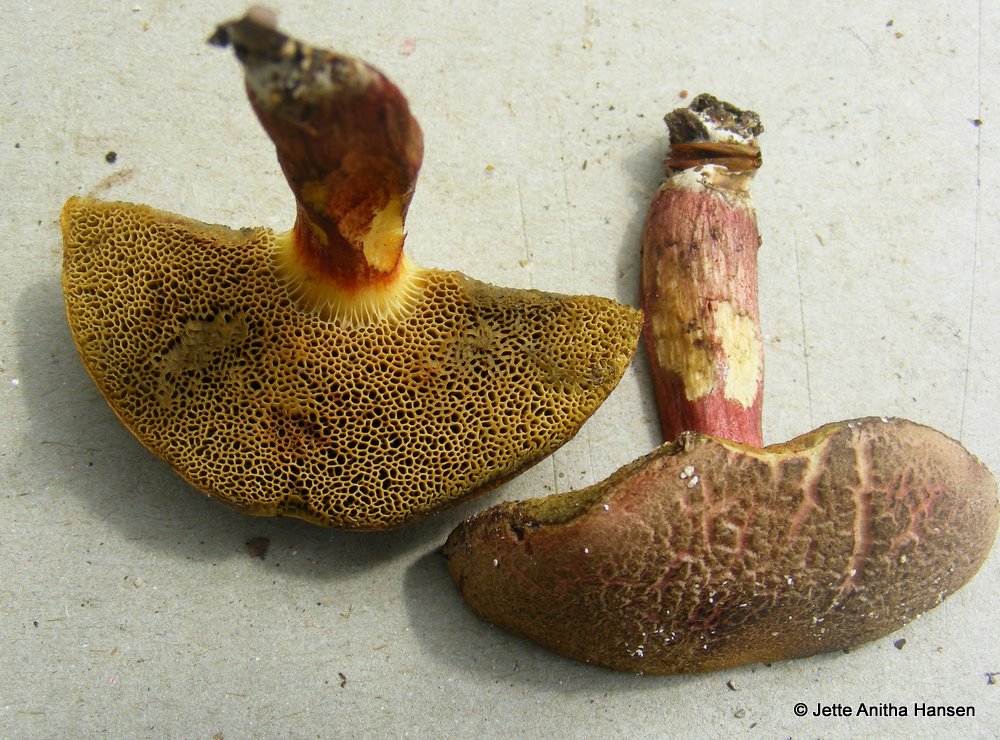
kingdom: Fungi
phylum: Basidiomycota
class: Agaricomycetes
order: Boletales
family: Boletaceae
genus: Xerocomellus
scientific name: Xerocomellus chrysenteron
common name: rødsprukken rørhat
